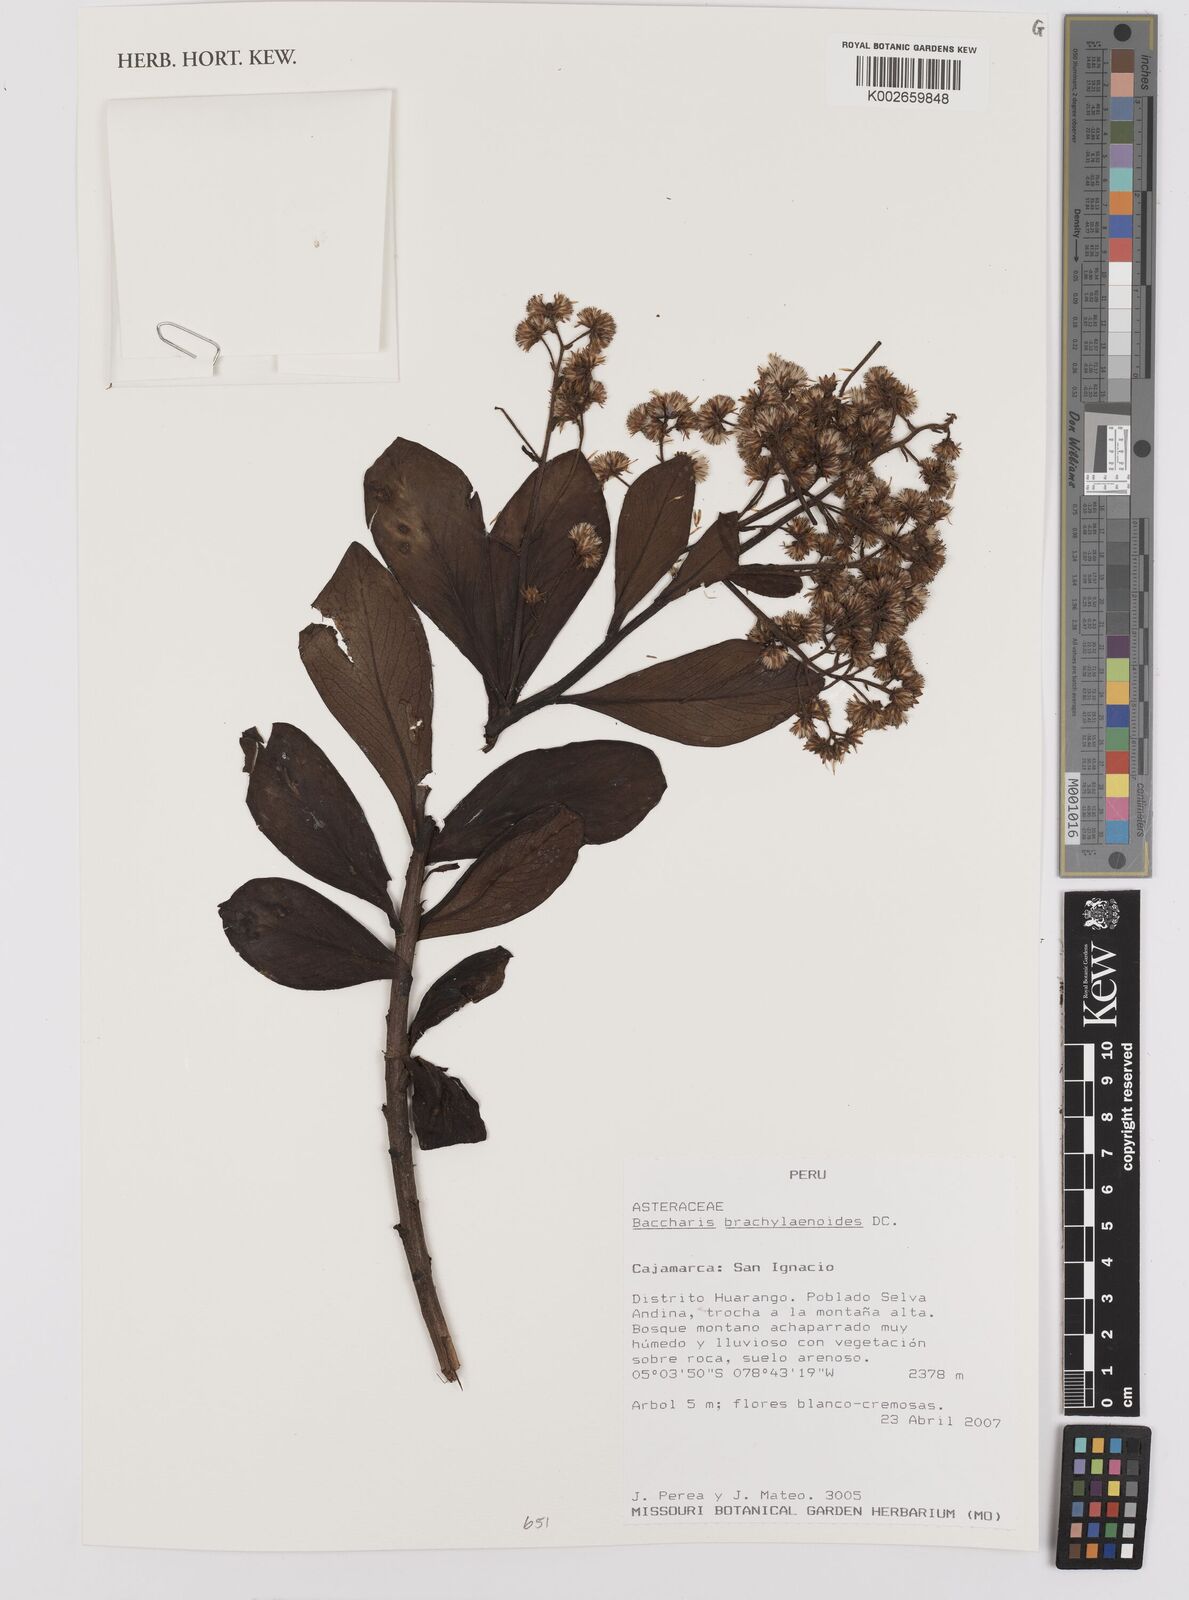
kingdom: Plantae
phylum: Tracheophyta
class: Magnoliopsida
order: Asterales
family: Asteraceae
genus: Baccharis
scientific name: Baccharis oblongifolia
